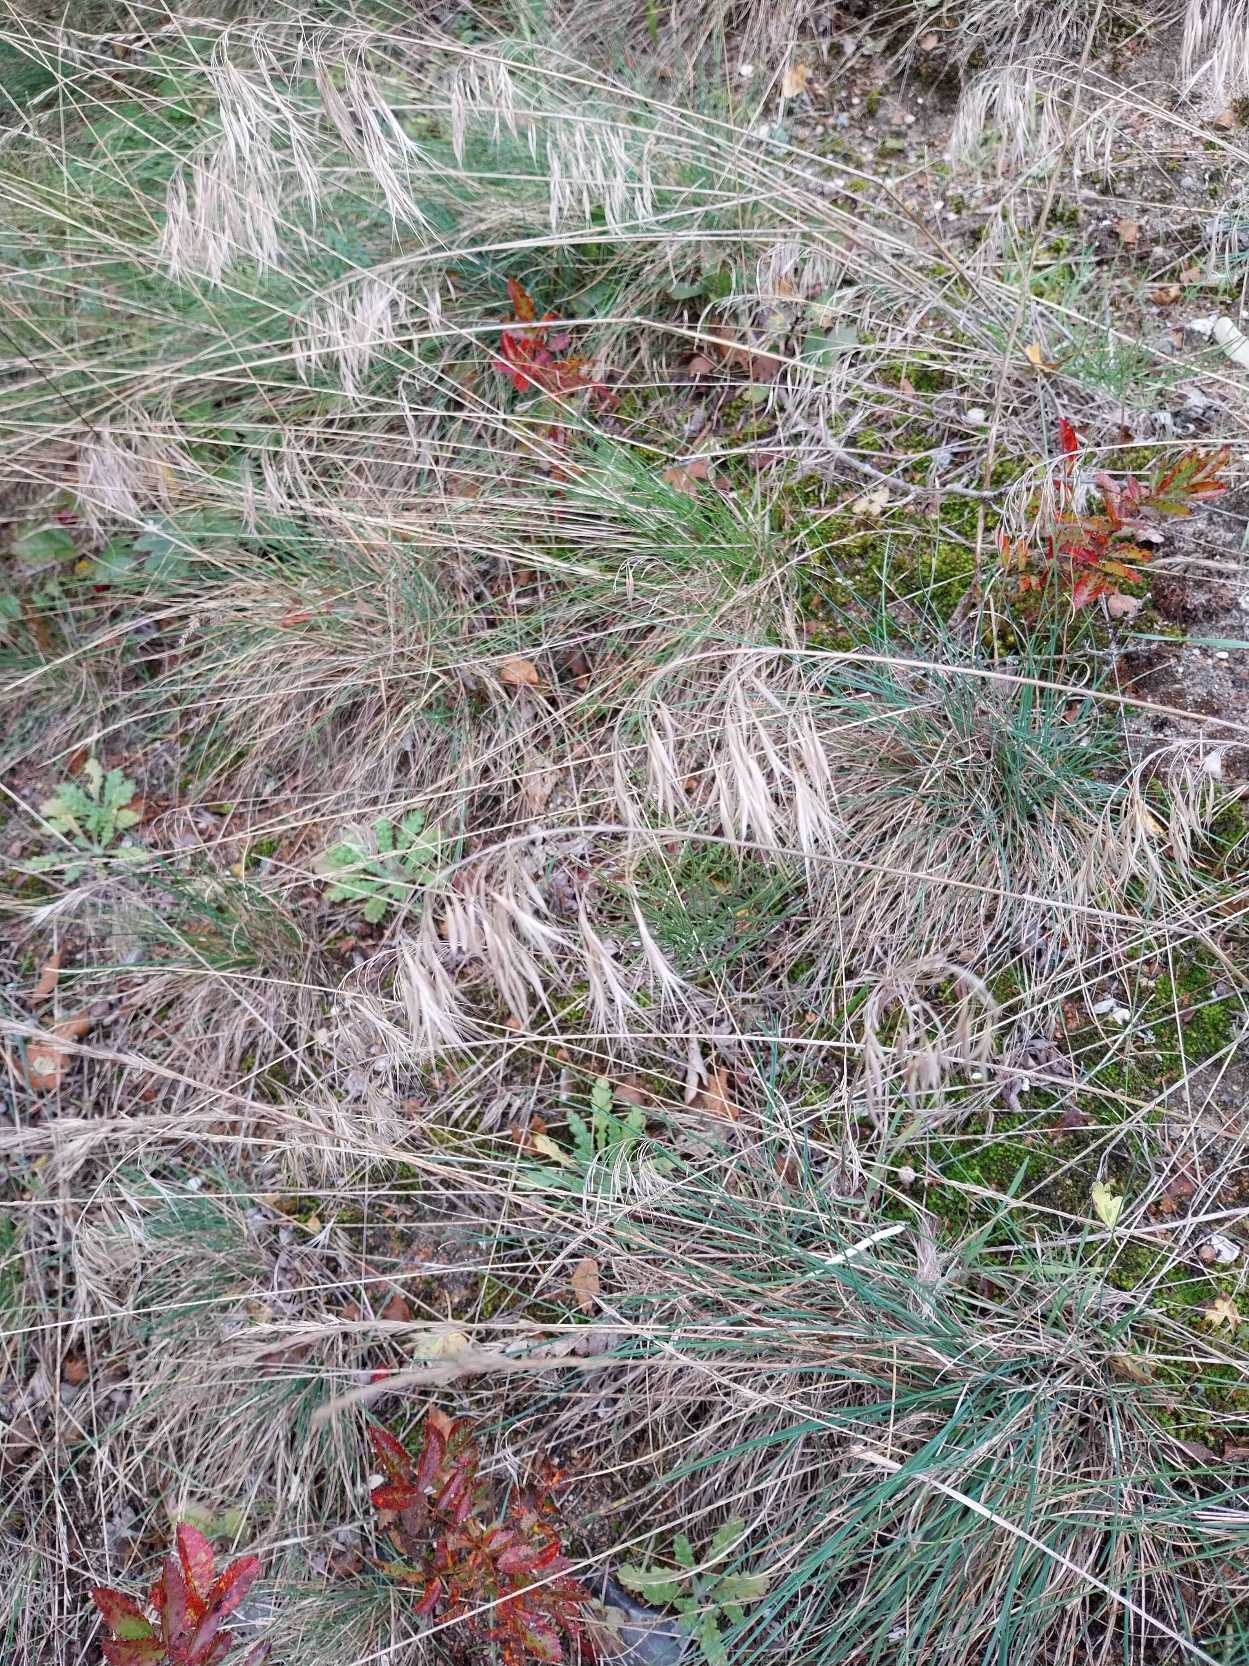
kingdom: Plantae
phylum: Tracheophyta
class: Liliopsida
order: Poales
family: Poaceae
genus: Bromus
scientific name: Bromus tectorum
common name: Tag-hejre
